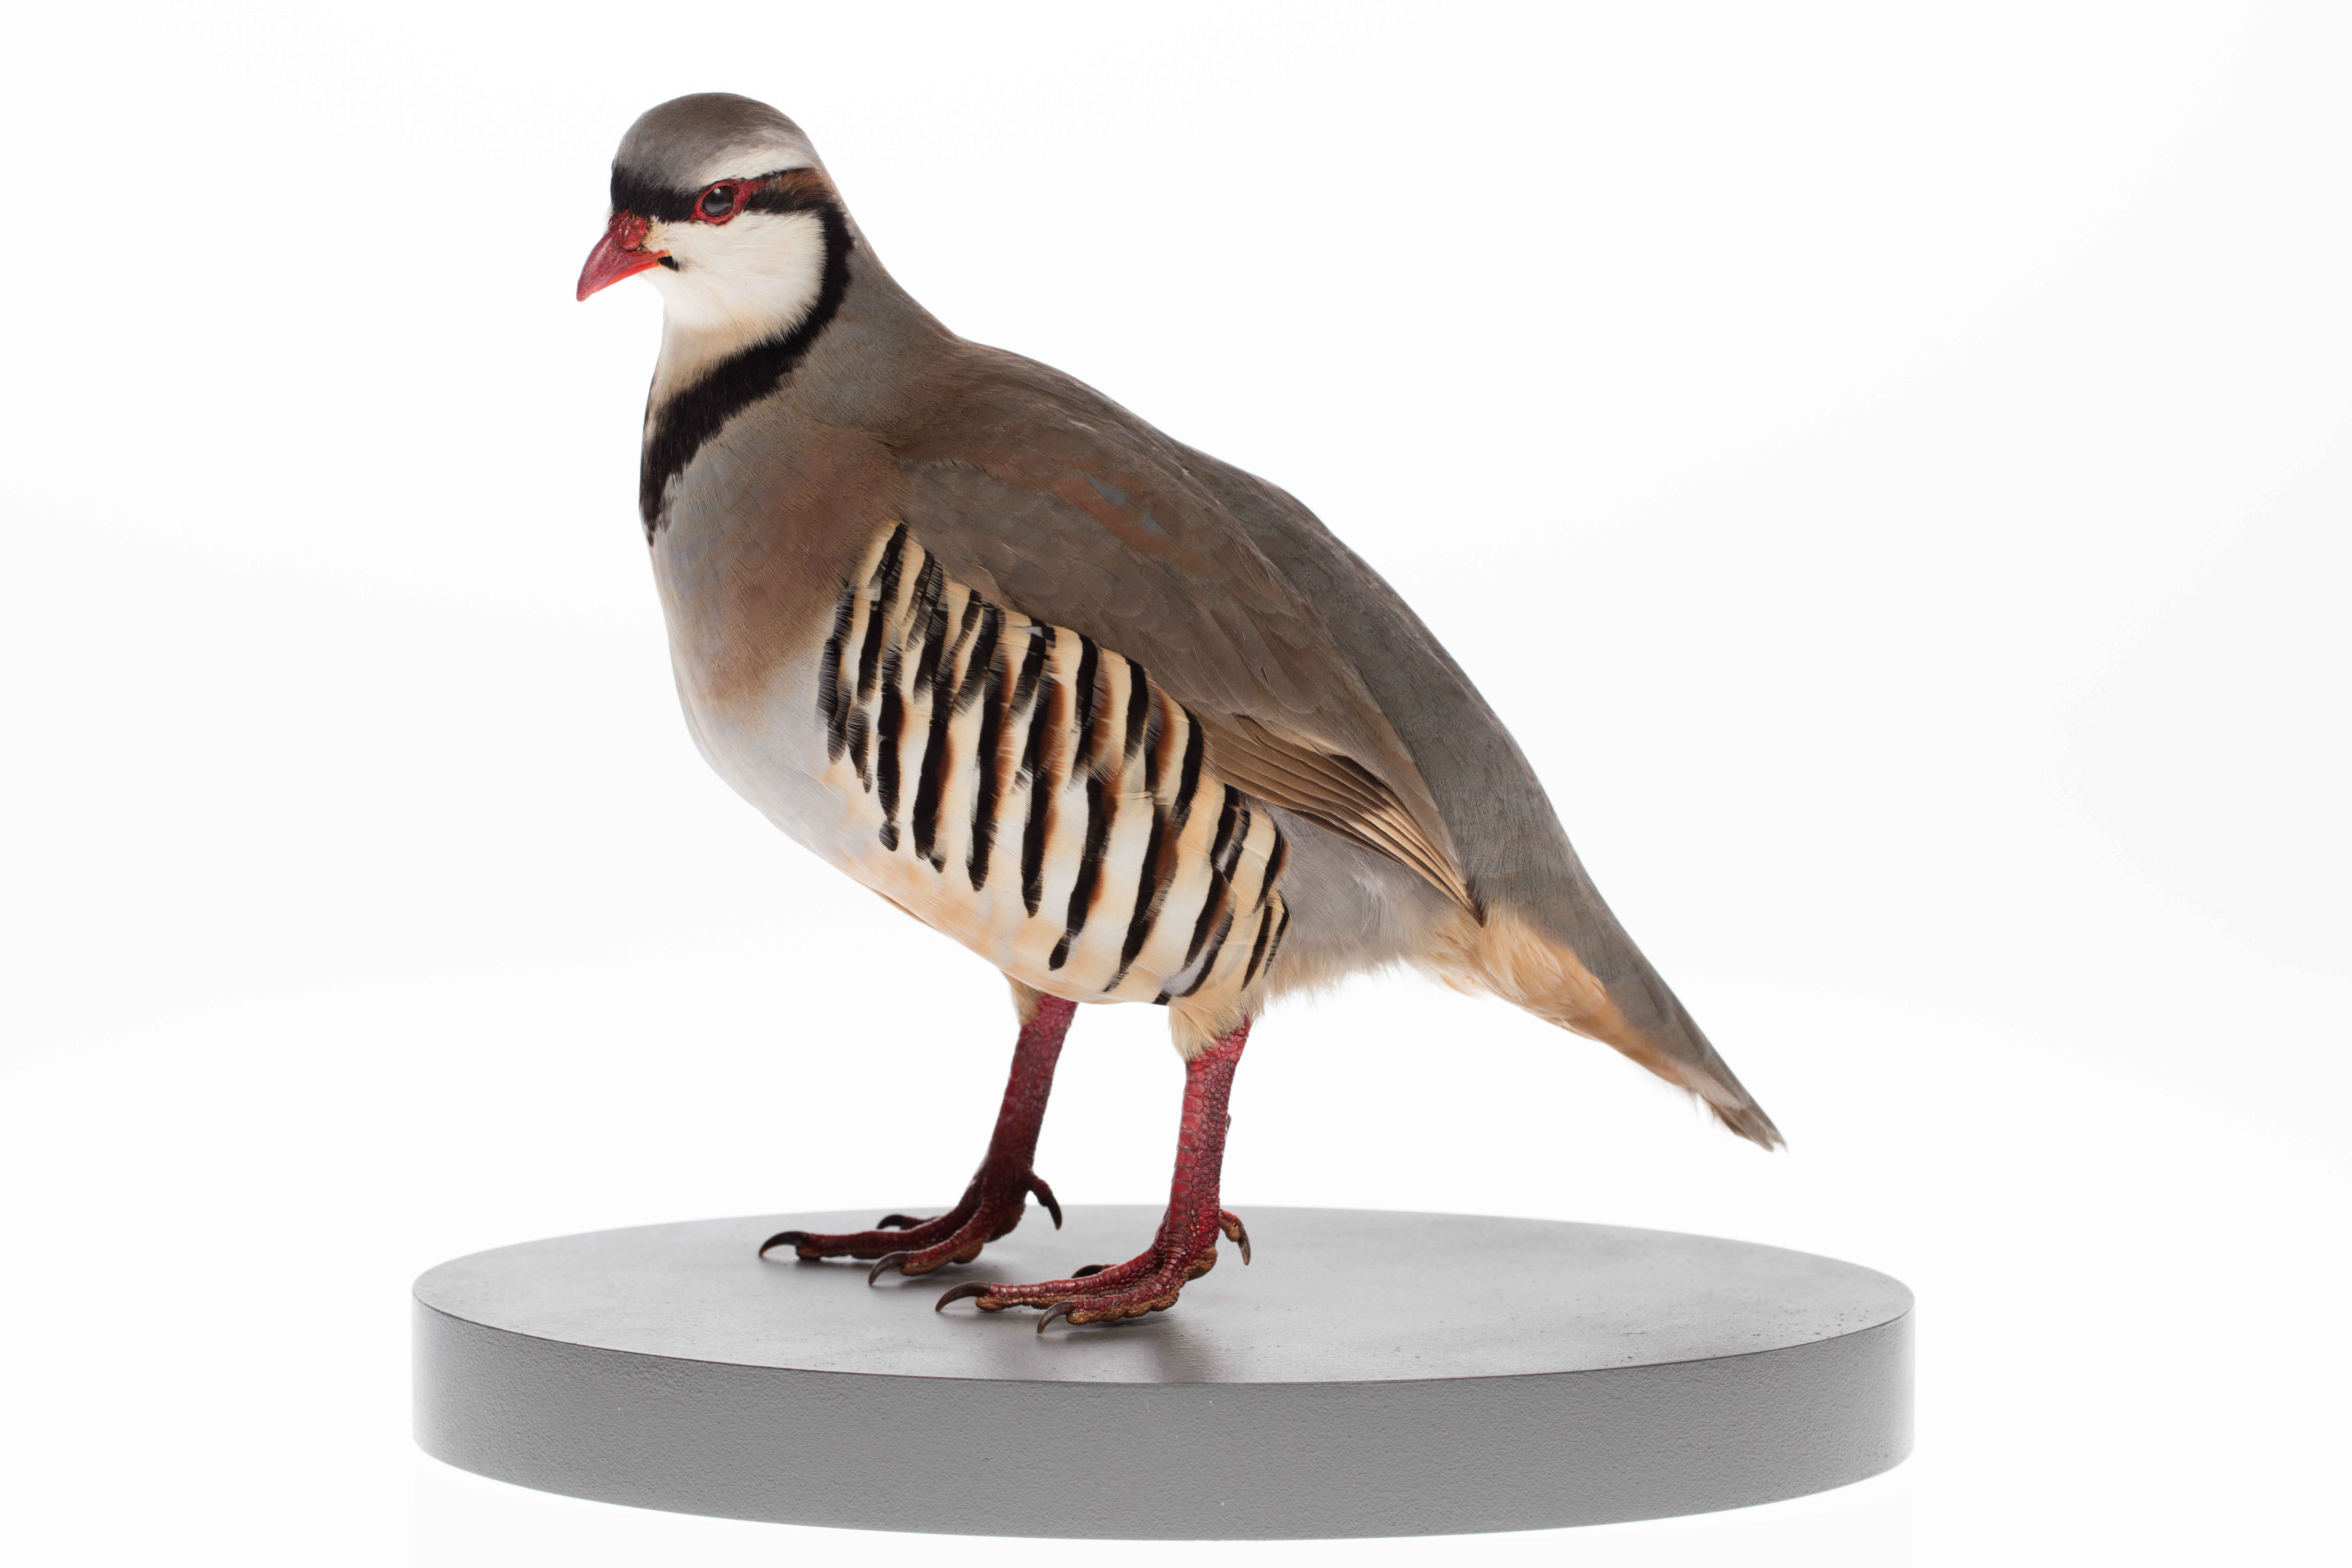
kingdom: Animalia
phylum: Chordata
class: Aves
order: Galliformes
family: Phasianidae
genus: Alectoris
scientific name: Alectoris chukar
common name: Chukar
